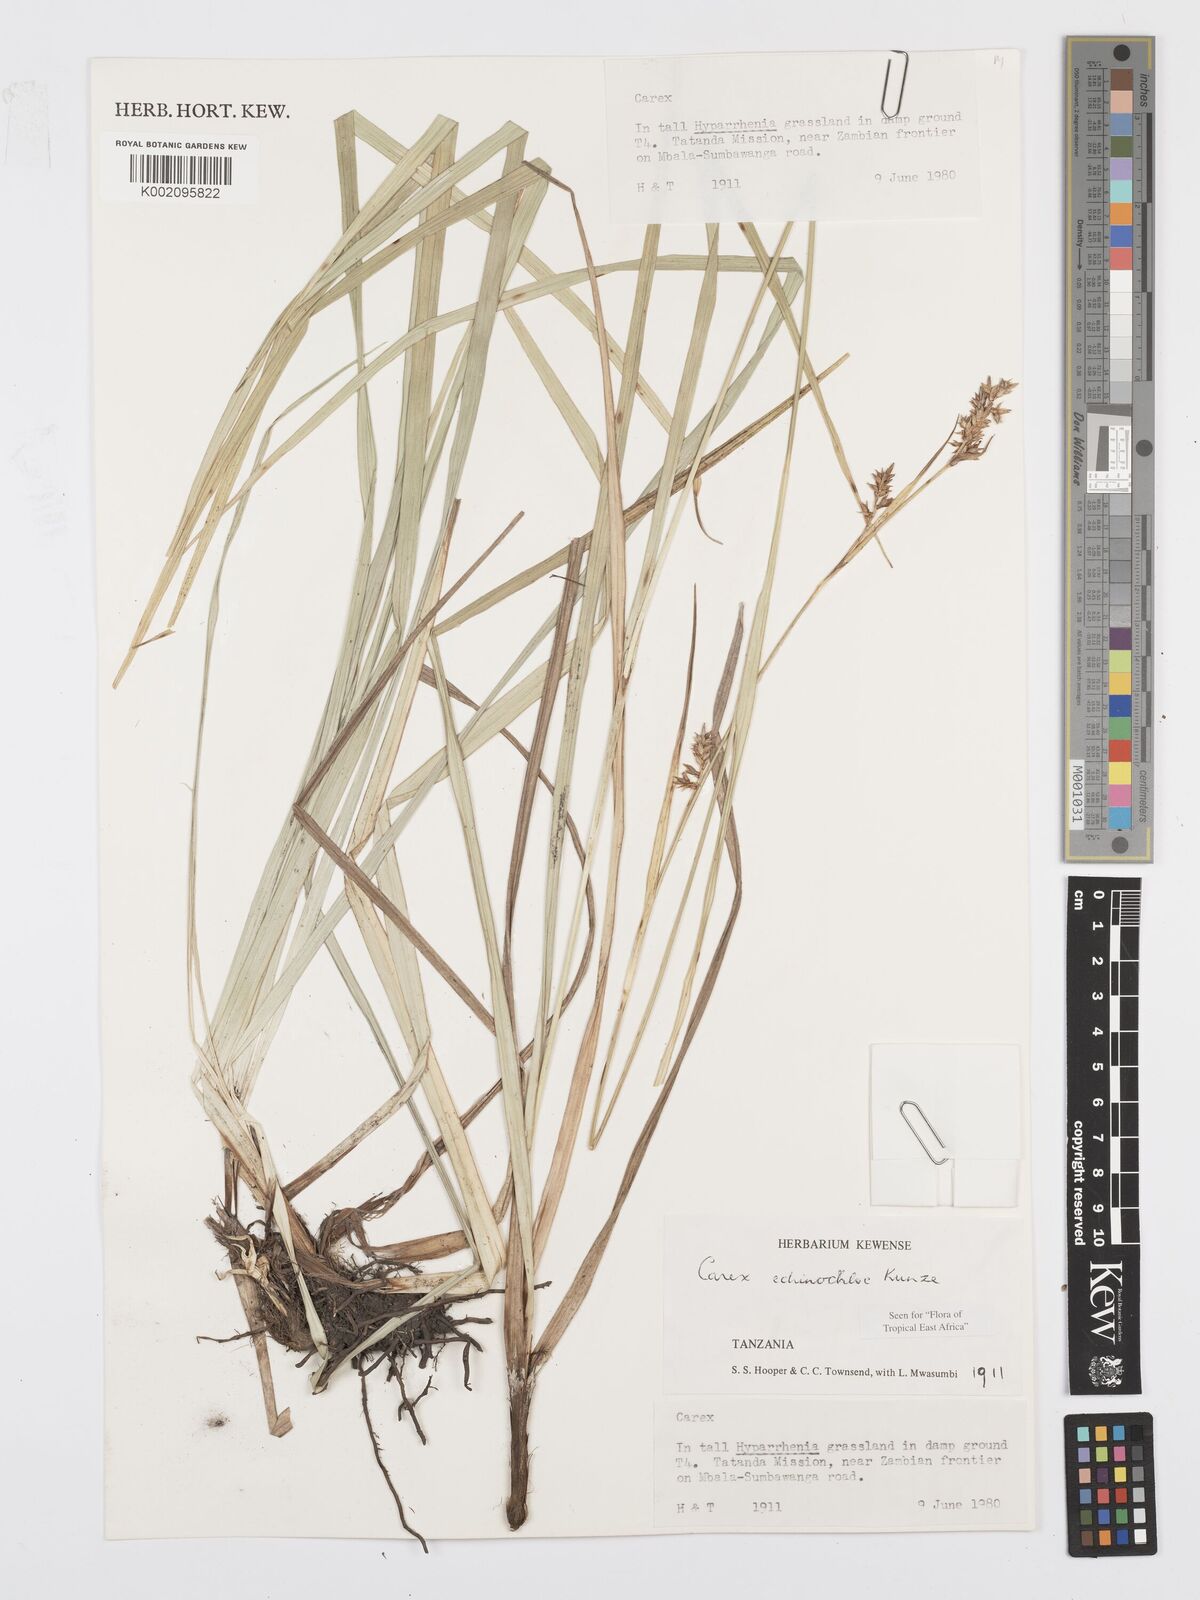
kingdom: Plantae
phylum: Tracheophyta
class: Liliopsida
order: Poales
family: Cyperaceae
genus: Carex
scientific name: Carex
